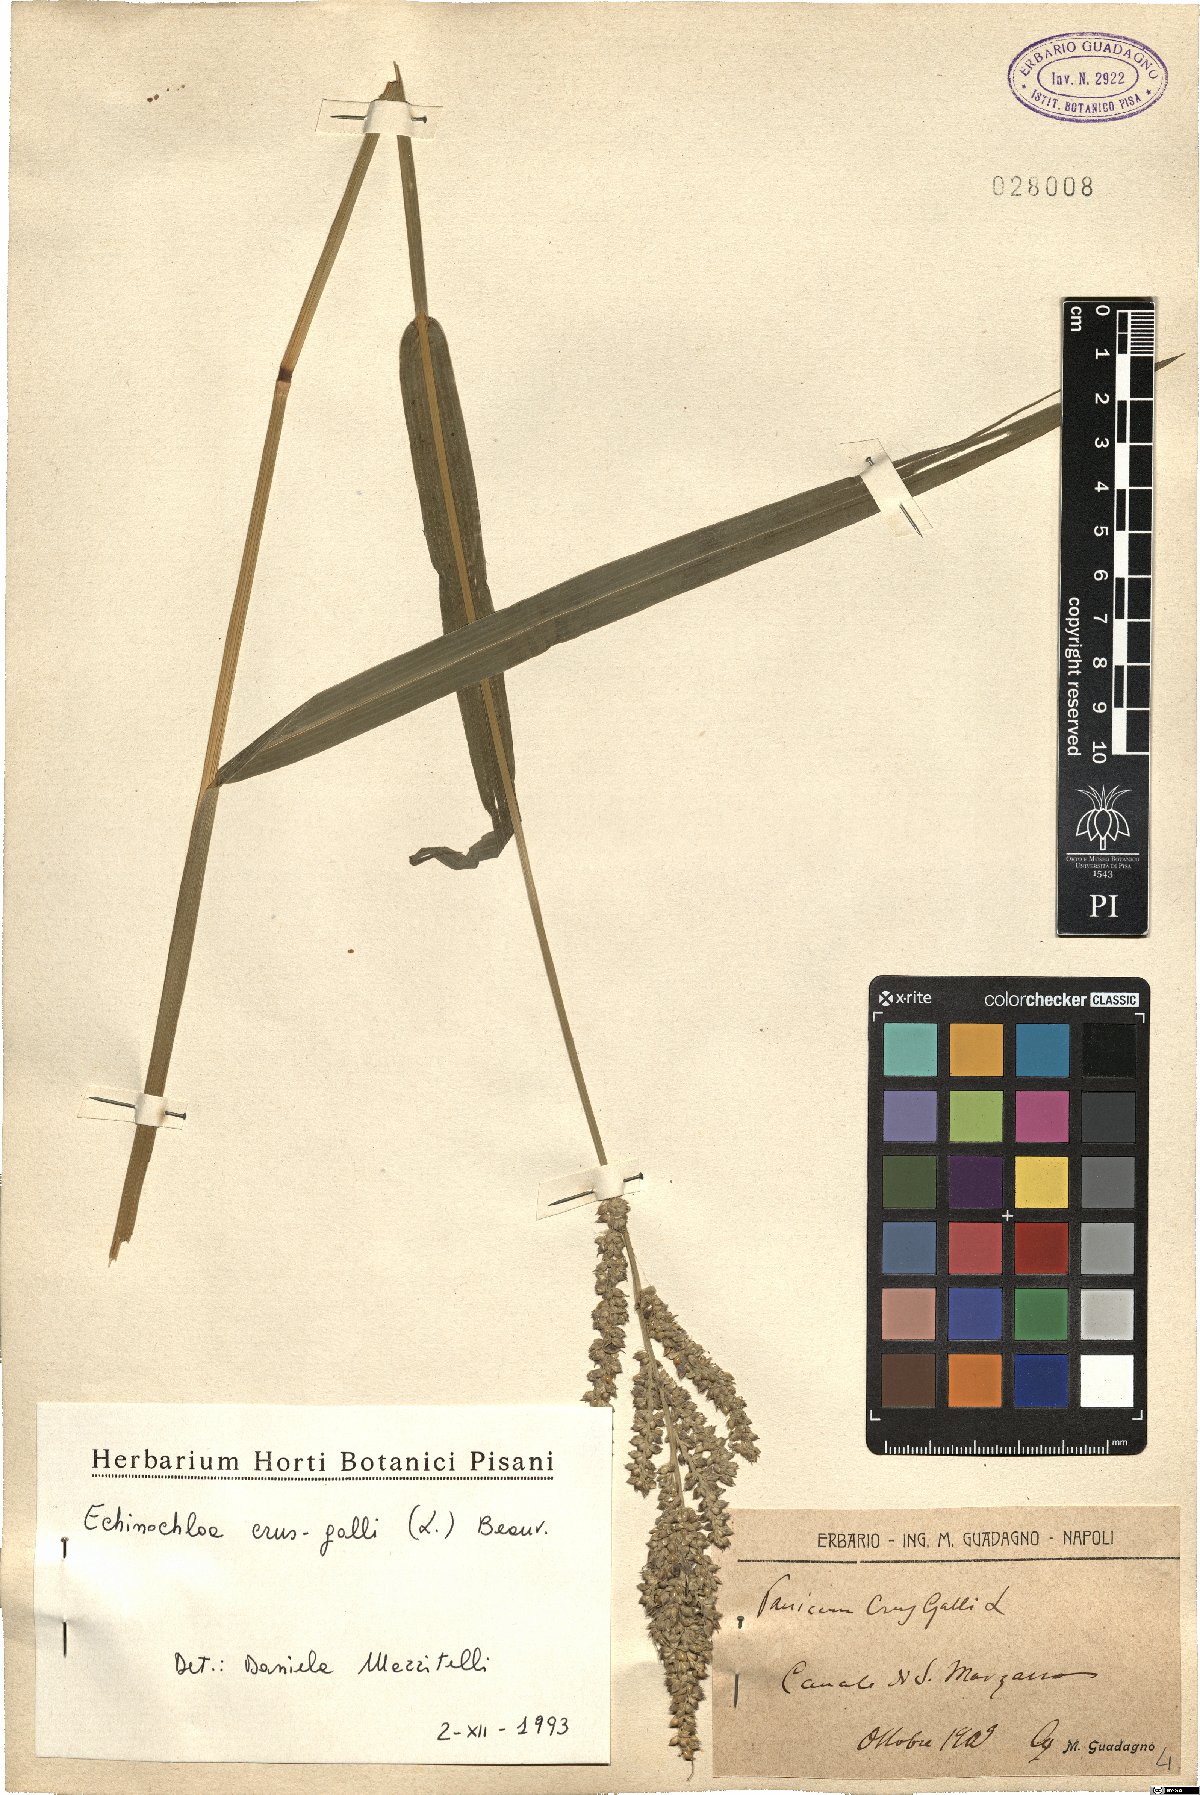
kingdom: Plantae
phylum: Tracheophyta
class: Liliopsida
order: Poales
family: Poaceae
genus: Echinochloa
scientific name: Echinochloa crus-galli
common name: Cockspur
